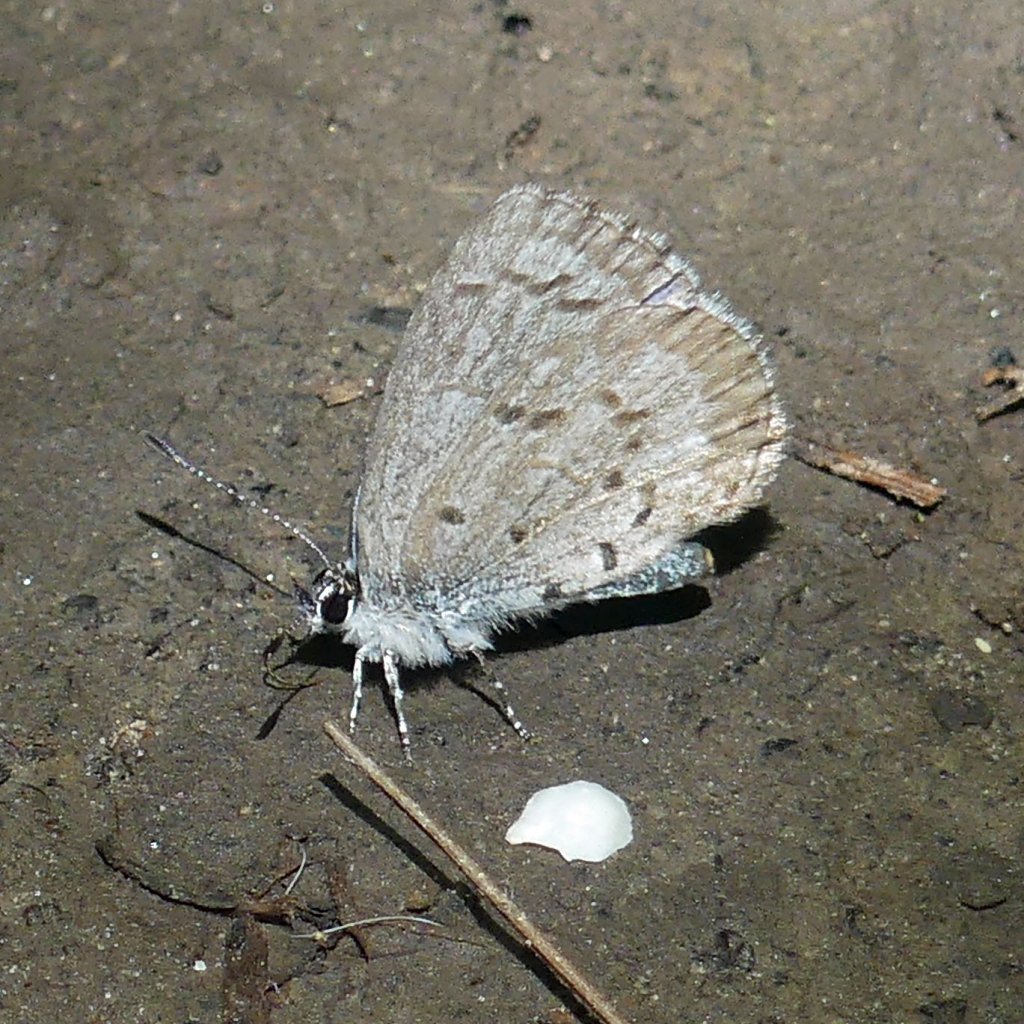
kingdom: Animalia
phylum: Arthropoda
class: Insecta
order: Lepidoptera
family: Lycaenidae
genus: Celastrina
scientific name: Celastrina lucia
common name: Northern Spring Azure
